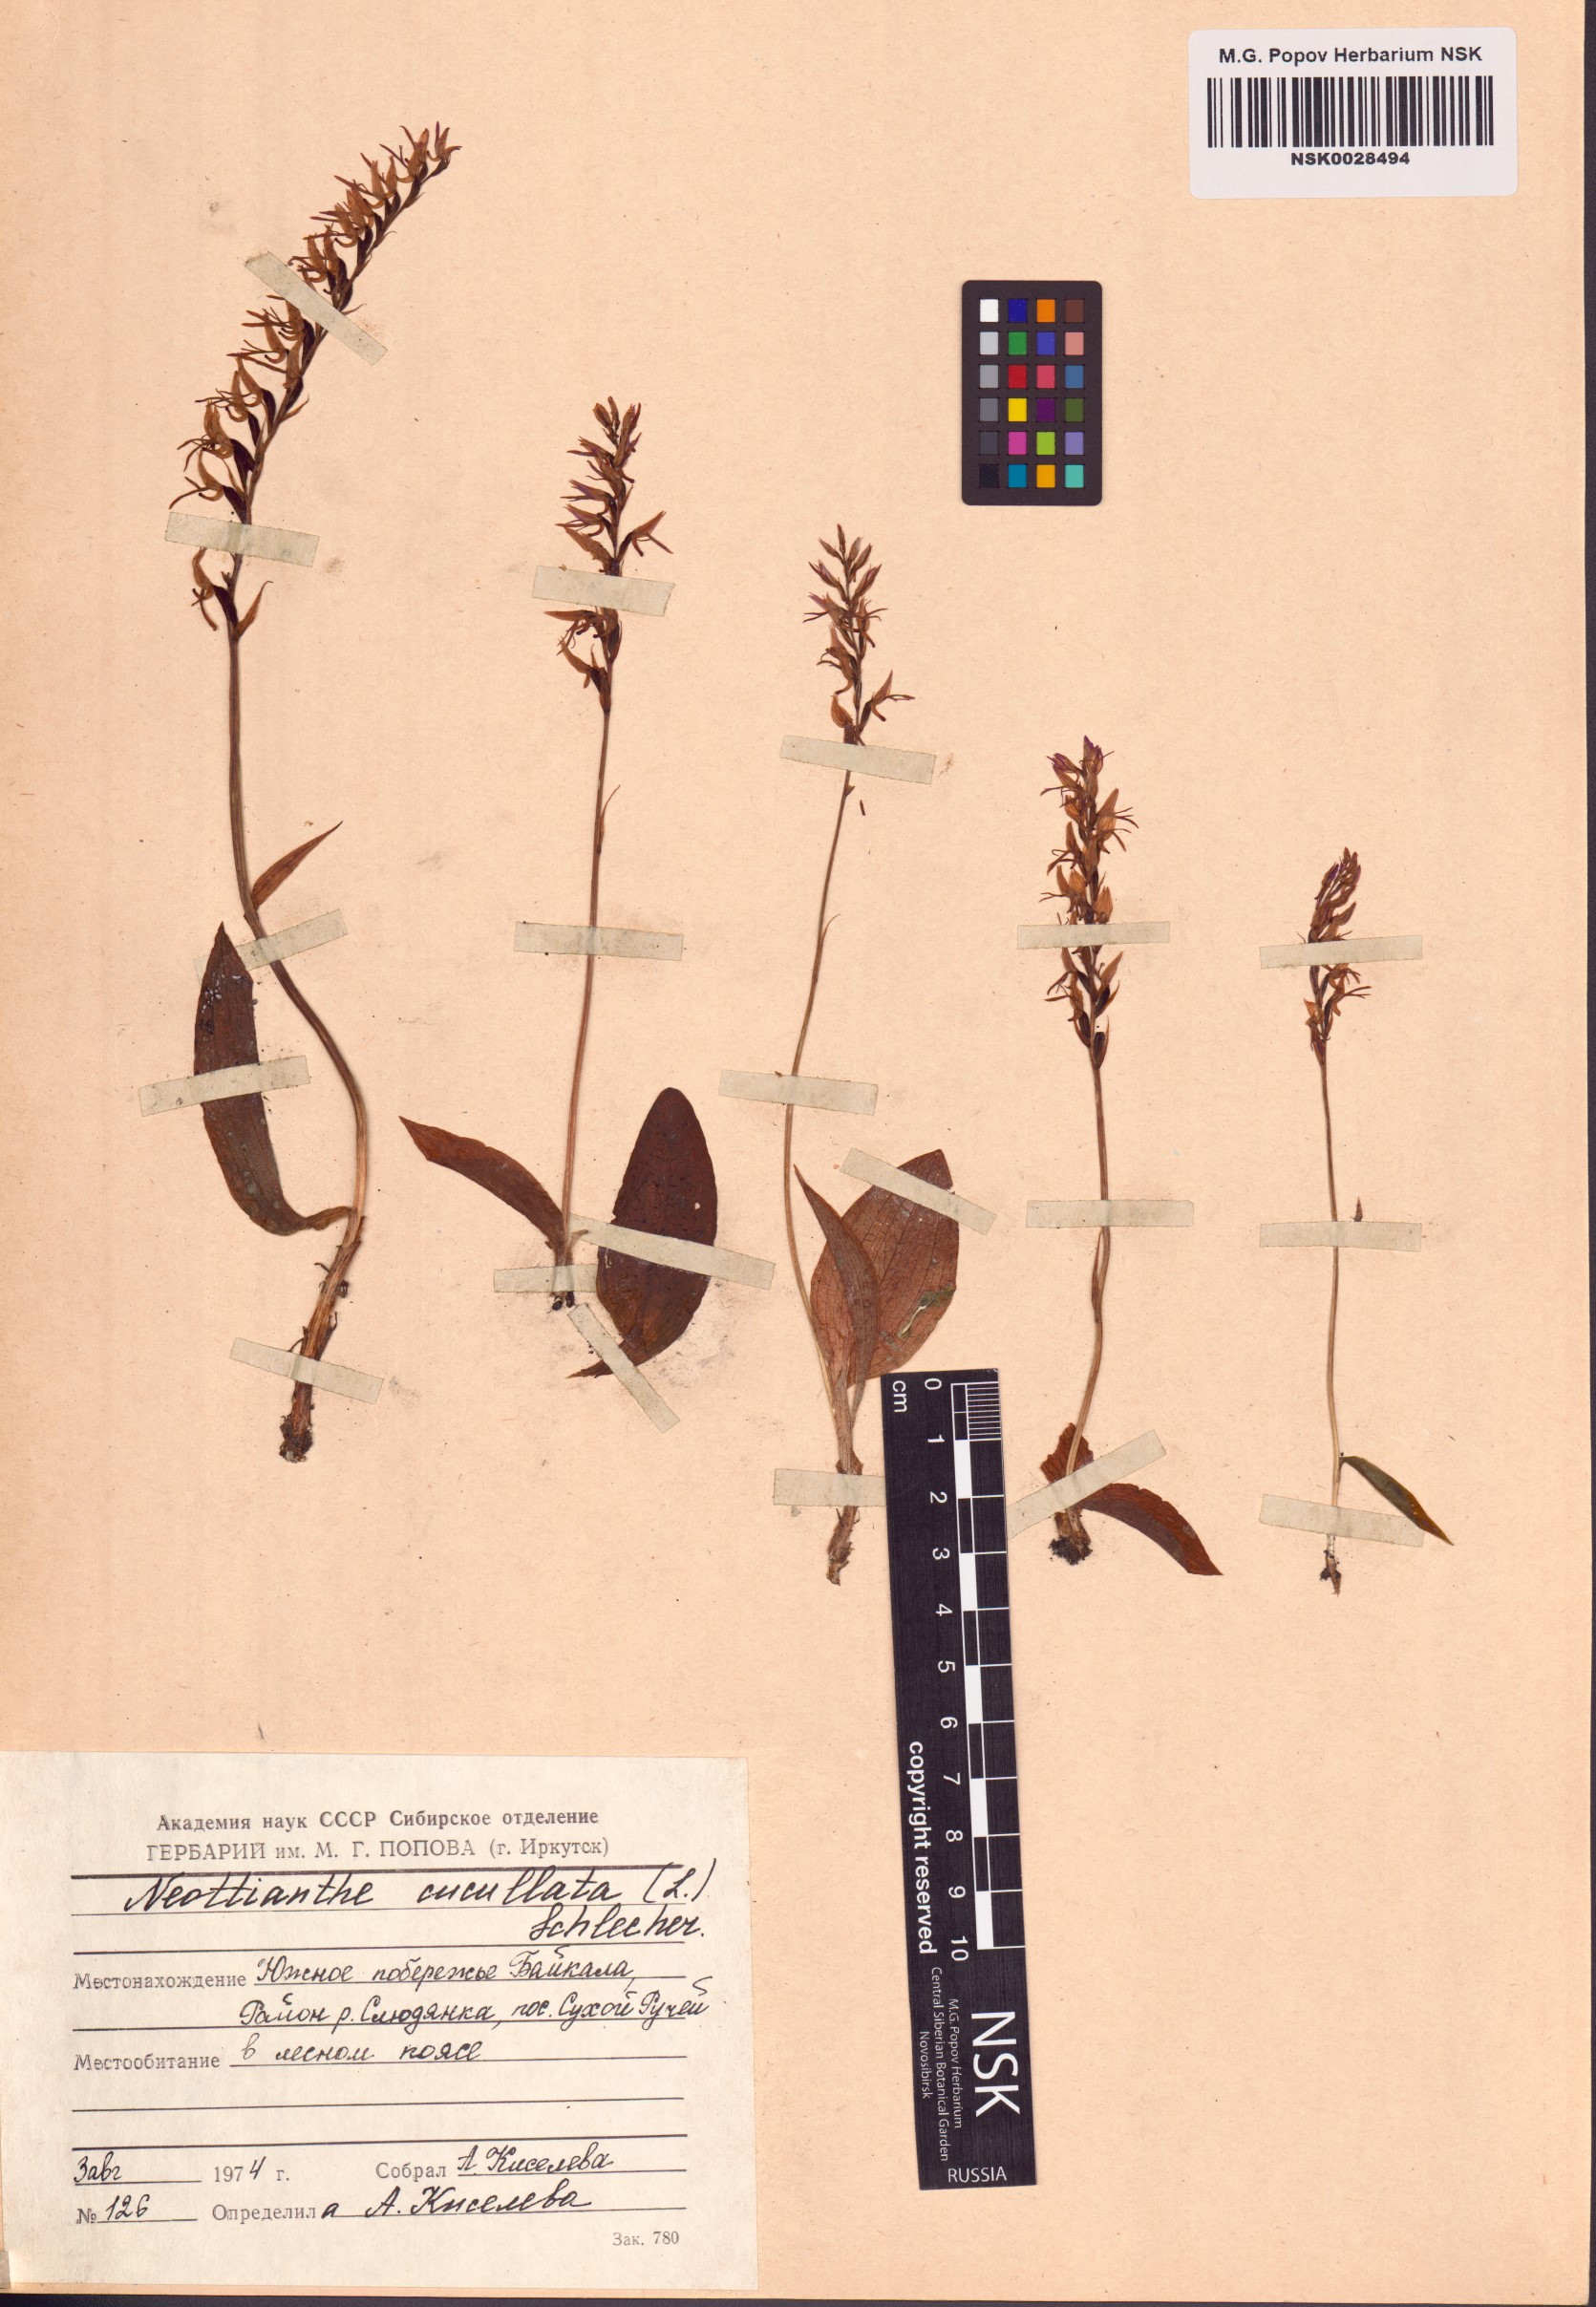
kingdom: Plantae
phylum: Tracheophyta
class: Liliopsida
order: Asparagales
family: Orchidaceae
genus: Hemipilia
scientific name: Hemipilia cucullata
